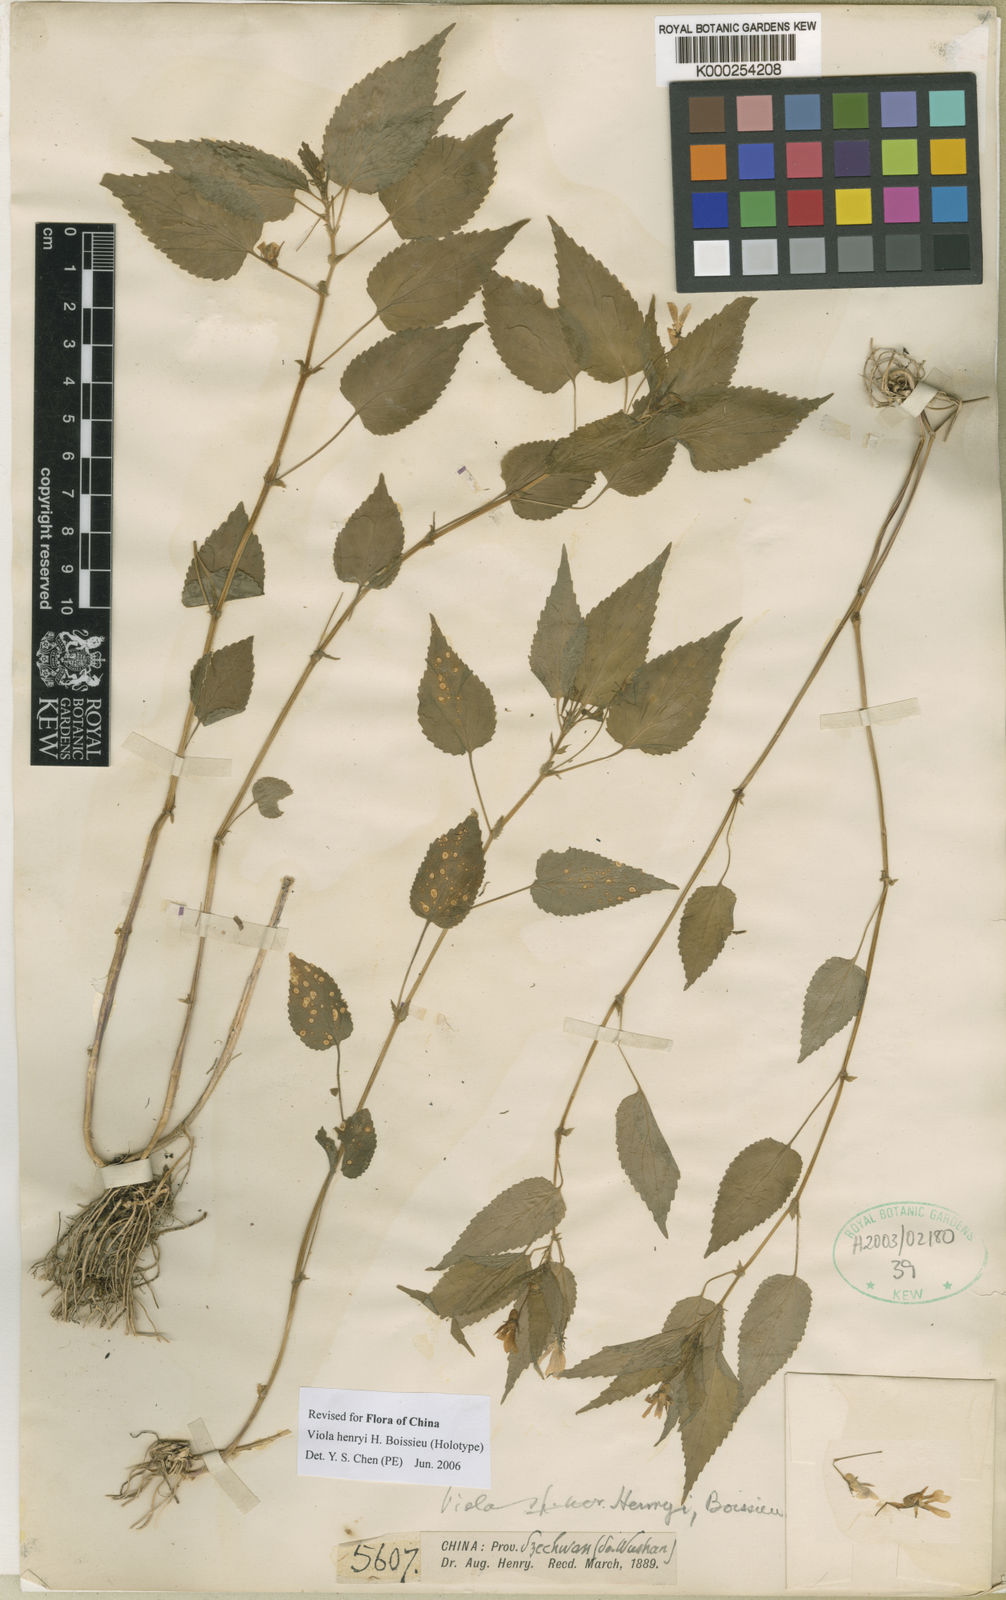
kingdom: Plantae
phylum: Tracheophyta
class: Magnoliopsida
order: Malpighiales
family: Violaceae
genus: Viola
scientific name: Viola henryi
